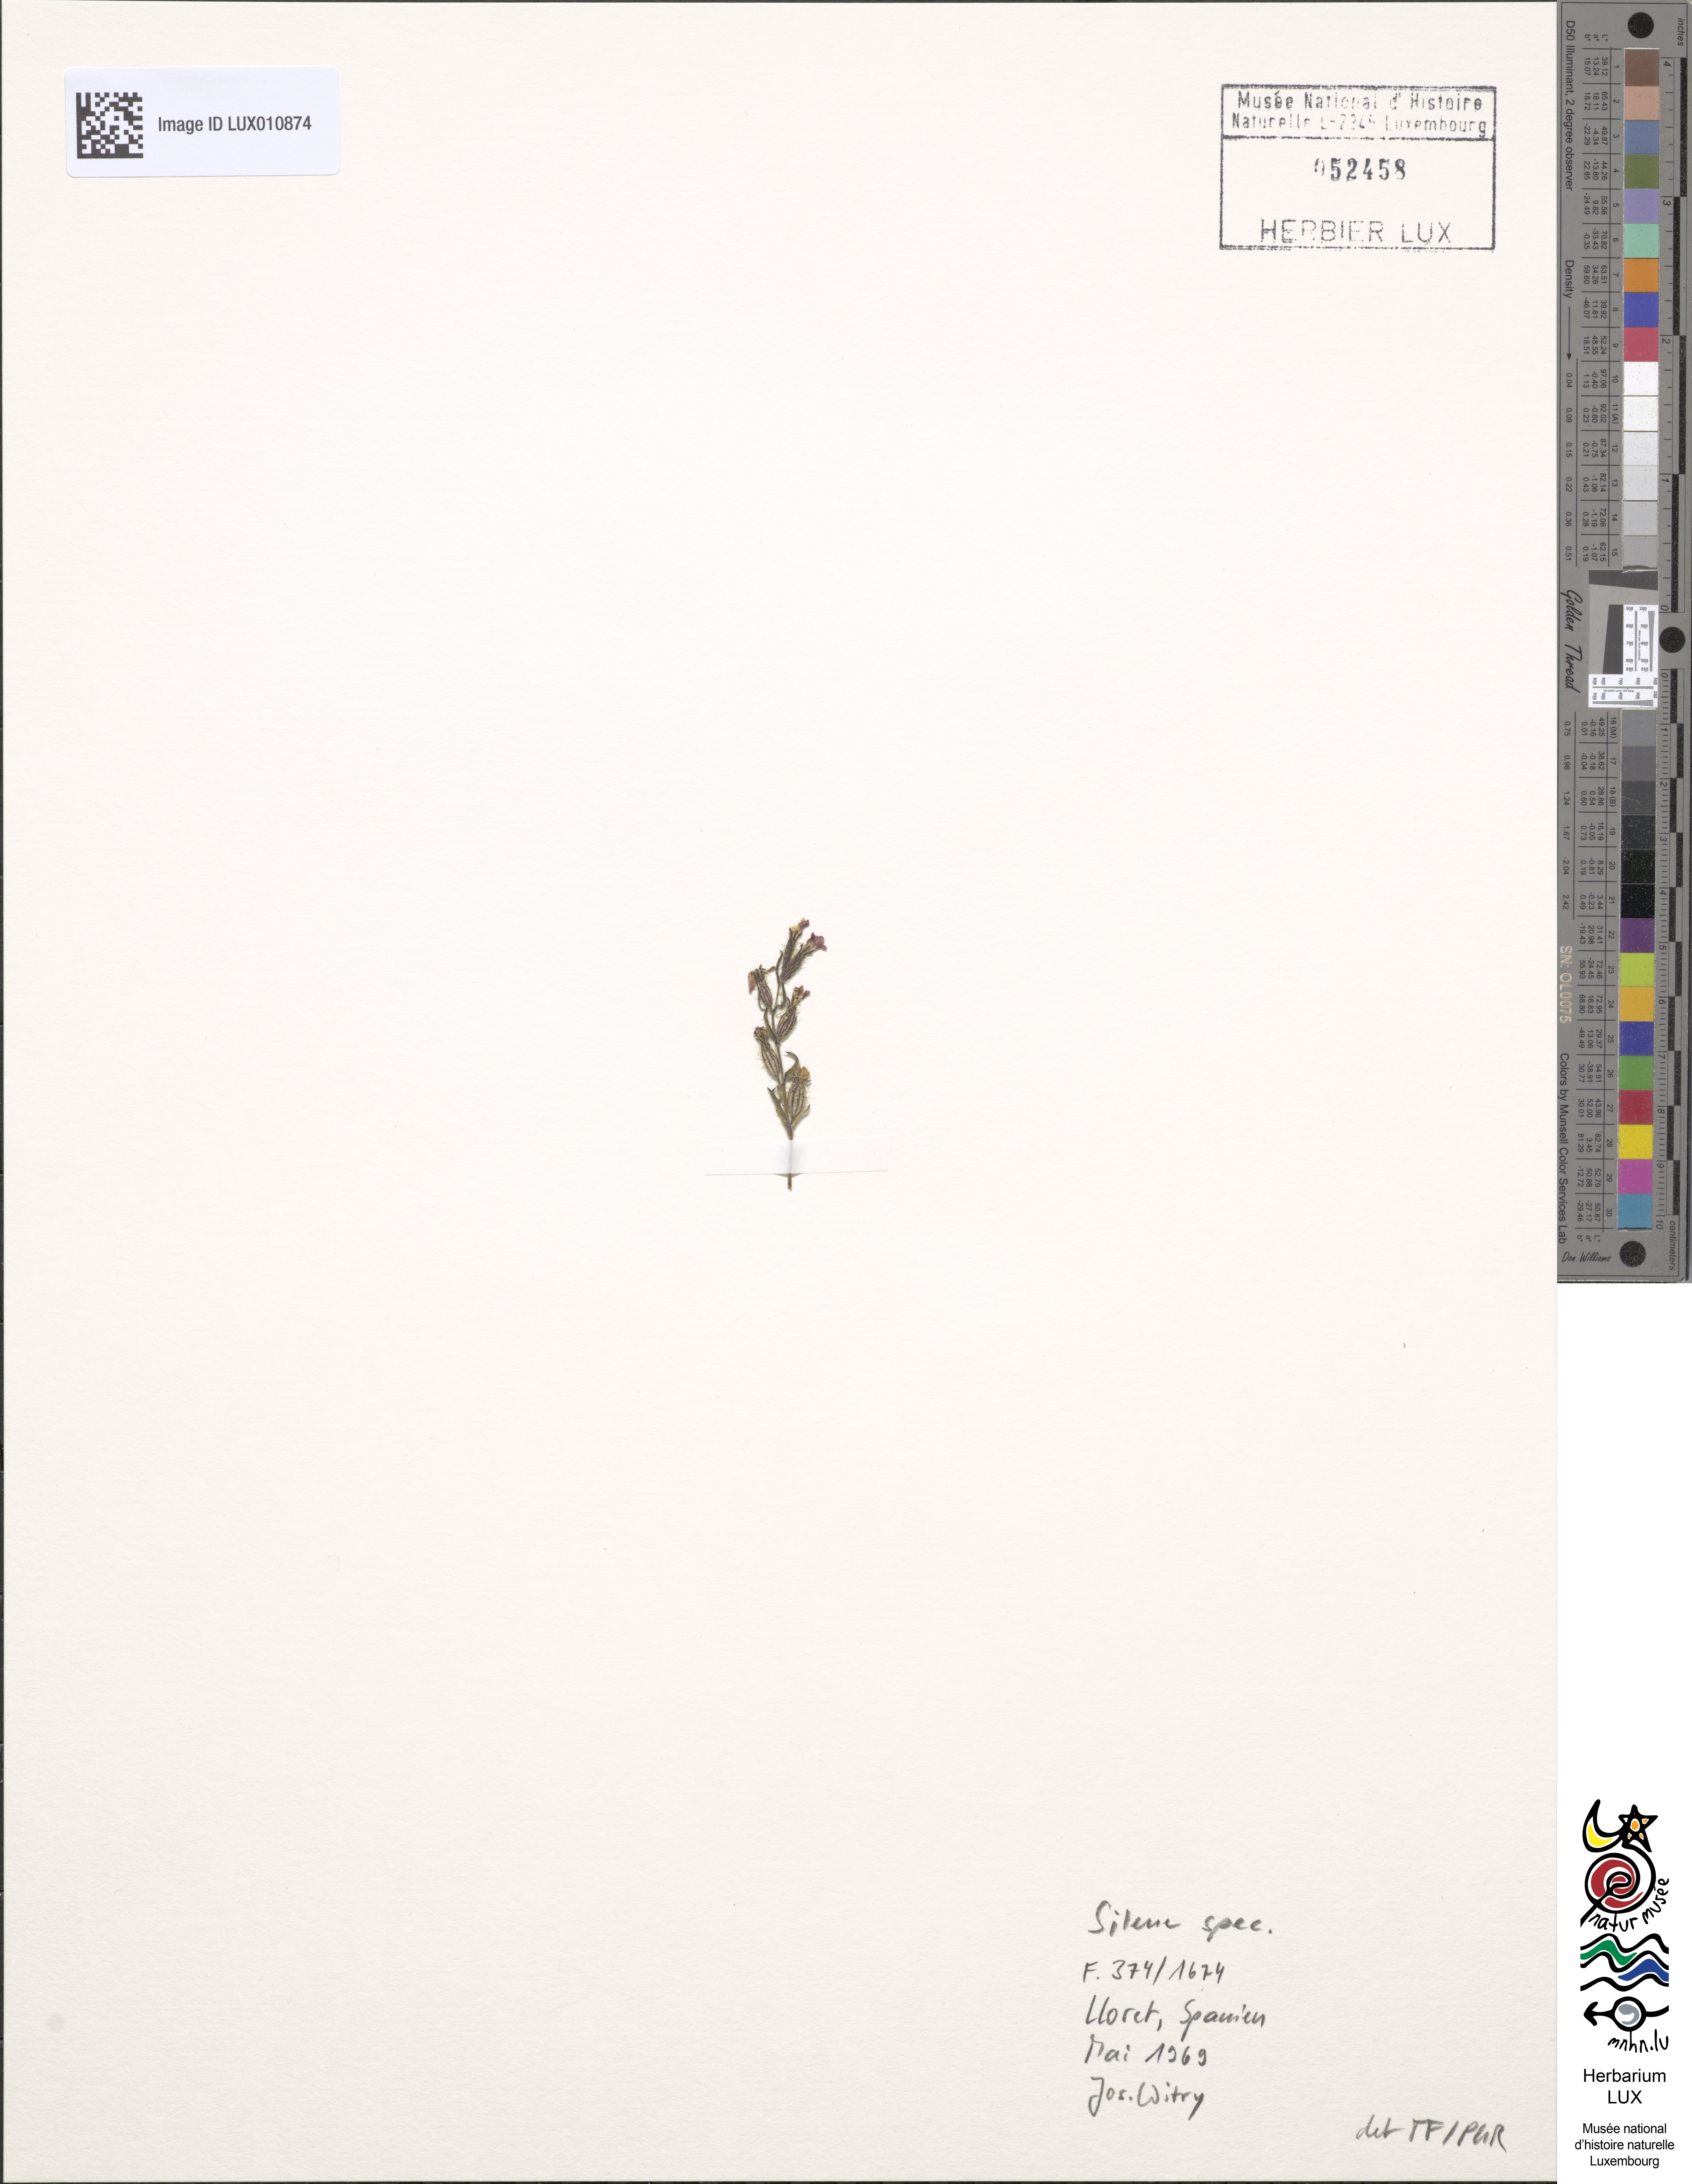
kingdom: Plantae
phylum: Tracheophyta
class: Magnoliopsida
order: Caryophyllales
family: Caryophyllaceae
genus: Silene
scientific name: Silene
